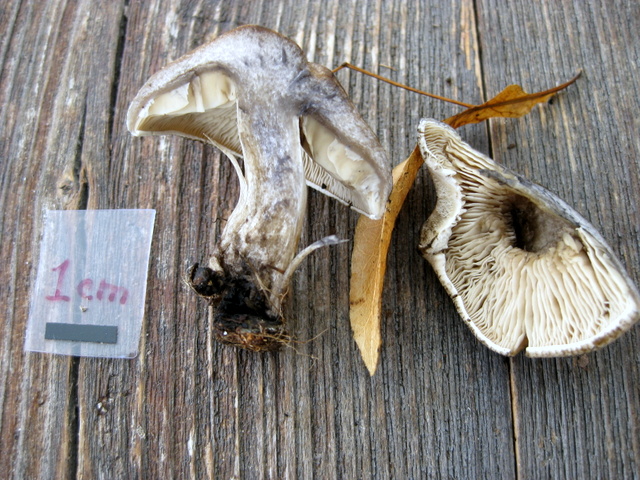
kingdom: Fungi
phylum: Basidiomycota
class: Agaricomycetes
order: Agaricales
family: Lyophyllaceae
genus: Calocybe
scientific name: Calocybe gangraenosa
